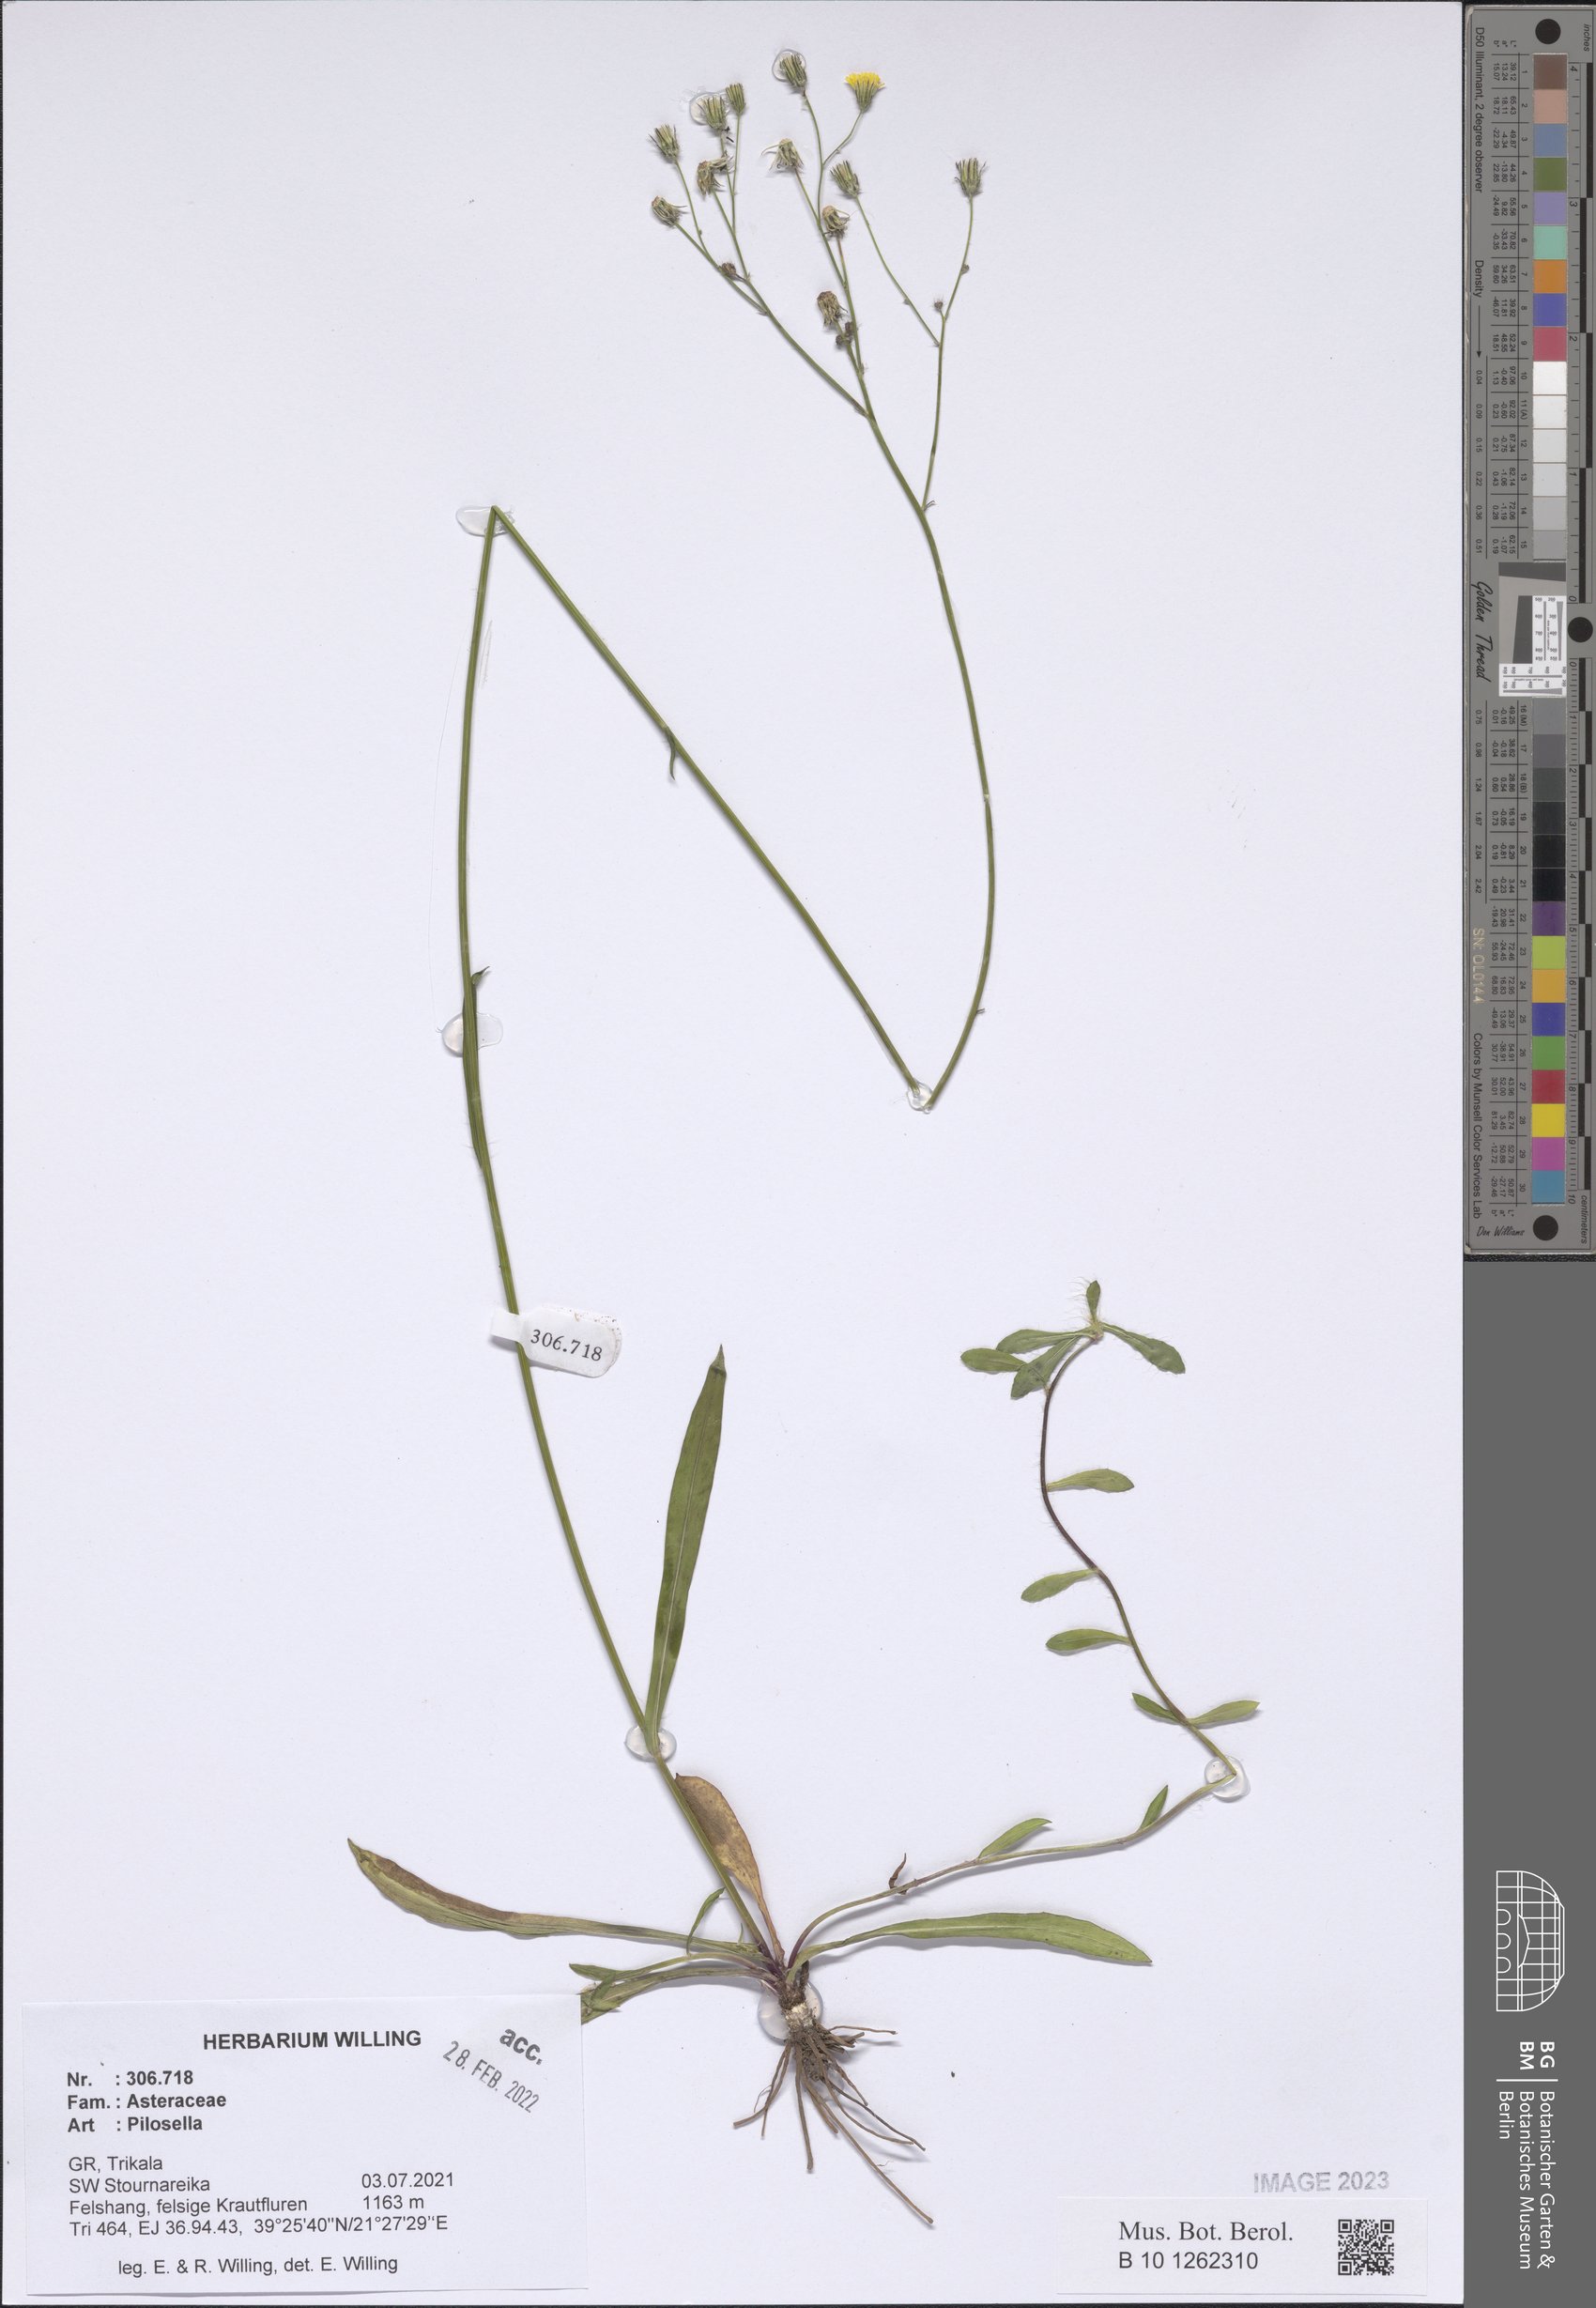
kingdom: Plantae
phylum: Tracheophyta
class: Magnoliopsida
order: Asterales
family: Asteraceae
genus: Pilosella
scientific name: Pilosella
